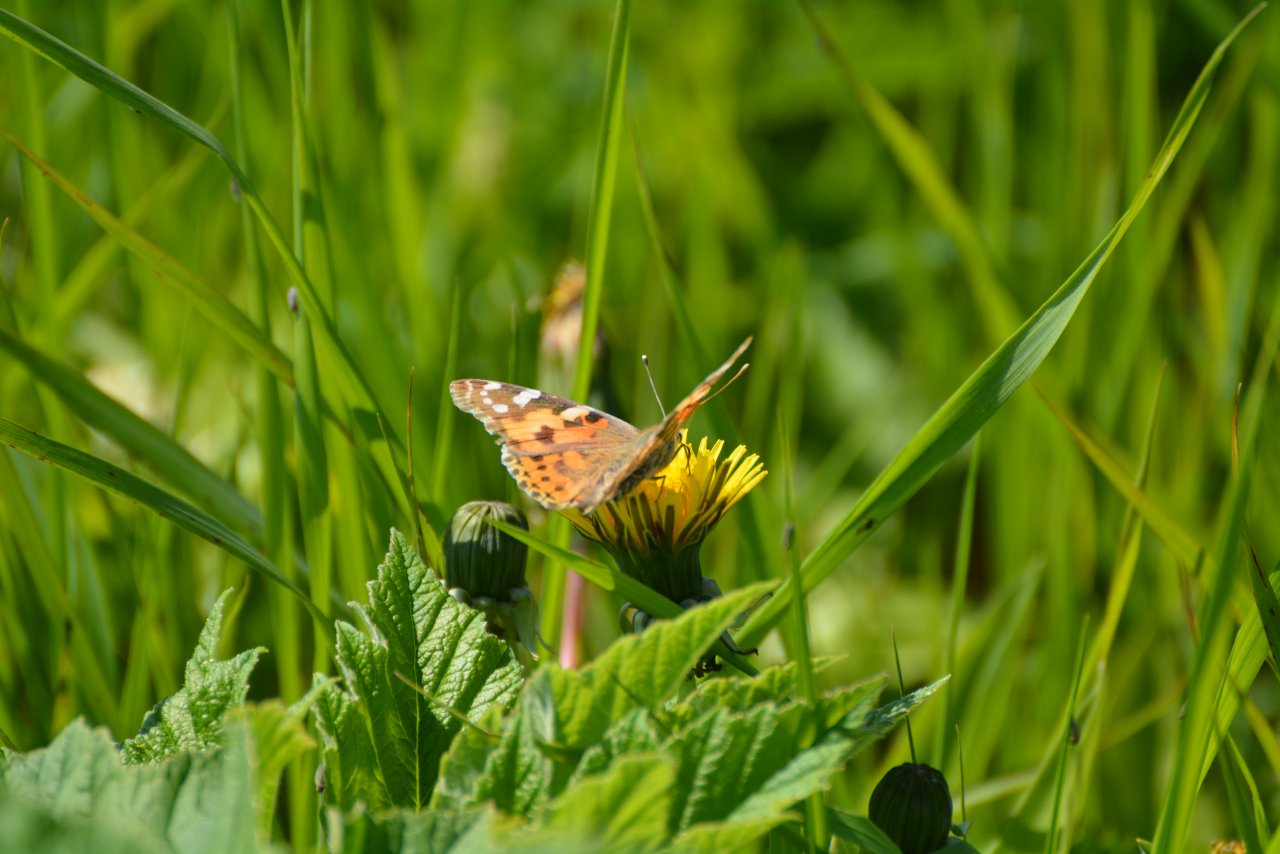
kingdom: Animalia
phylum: Arthropoda
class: Insecta
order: Lepidoptera
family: Nymphalidae
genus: Vanessa
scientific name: Vanessa cardui
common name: Painted Lady
